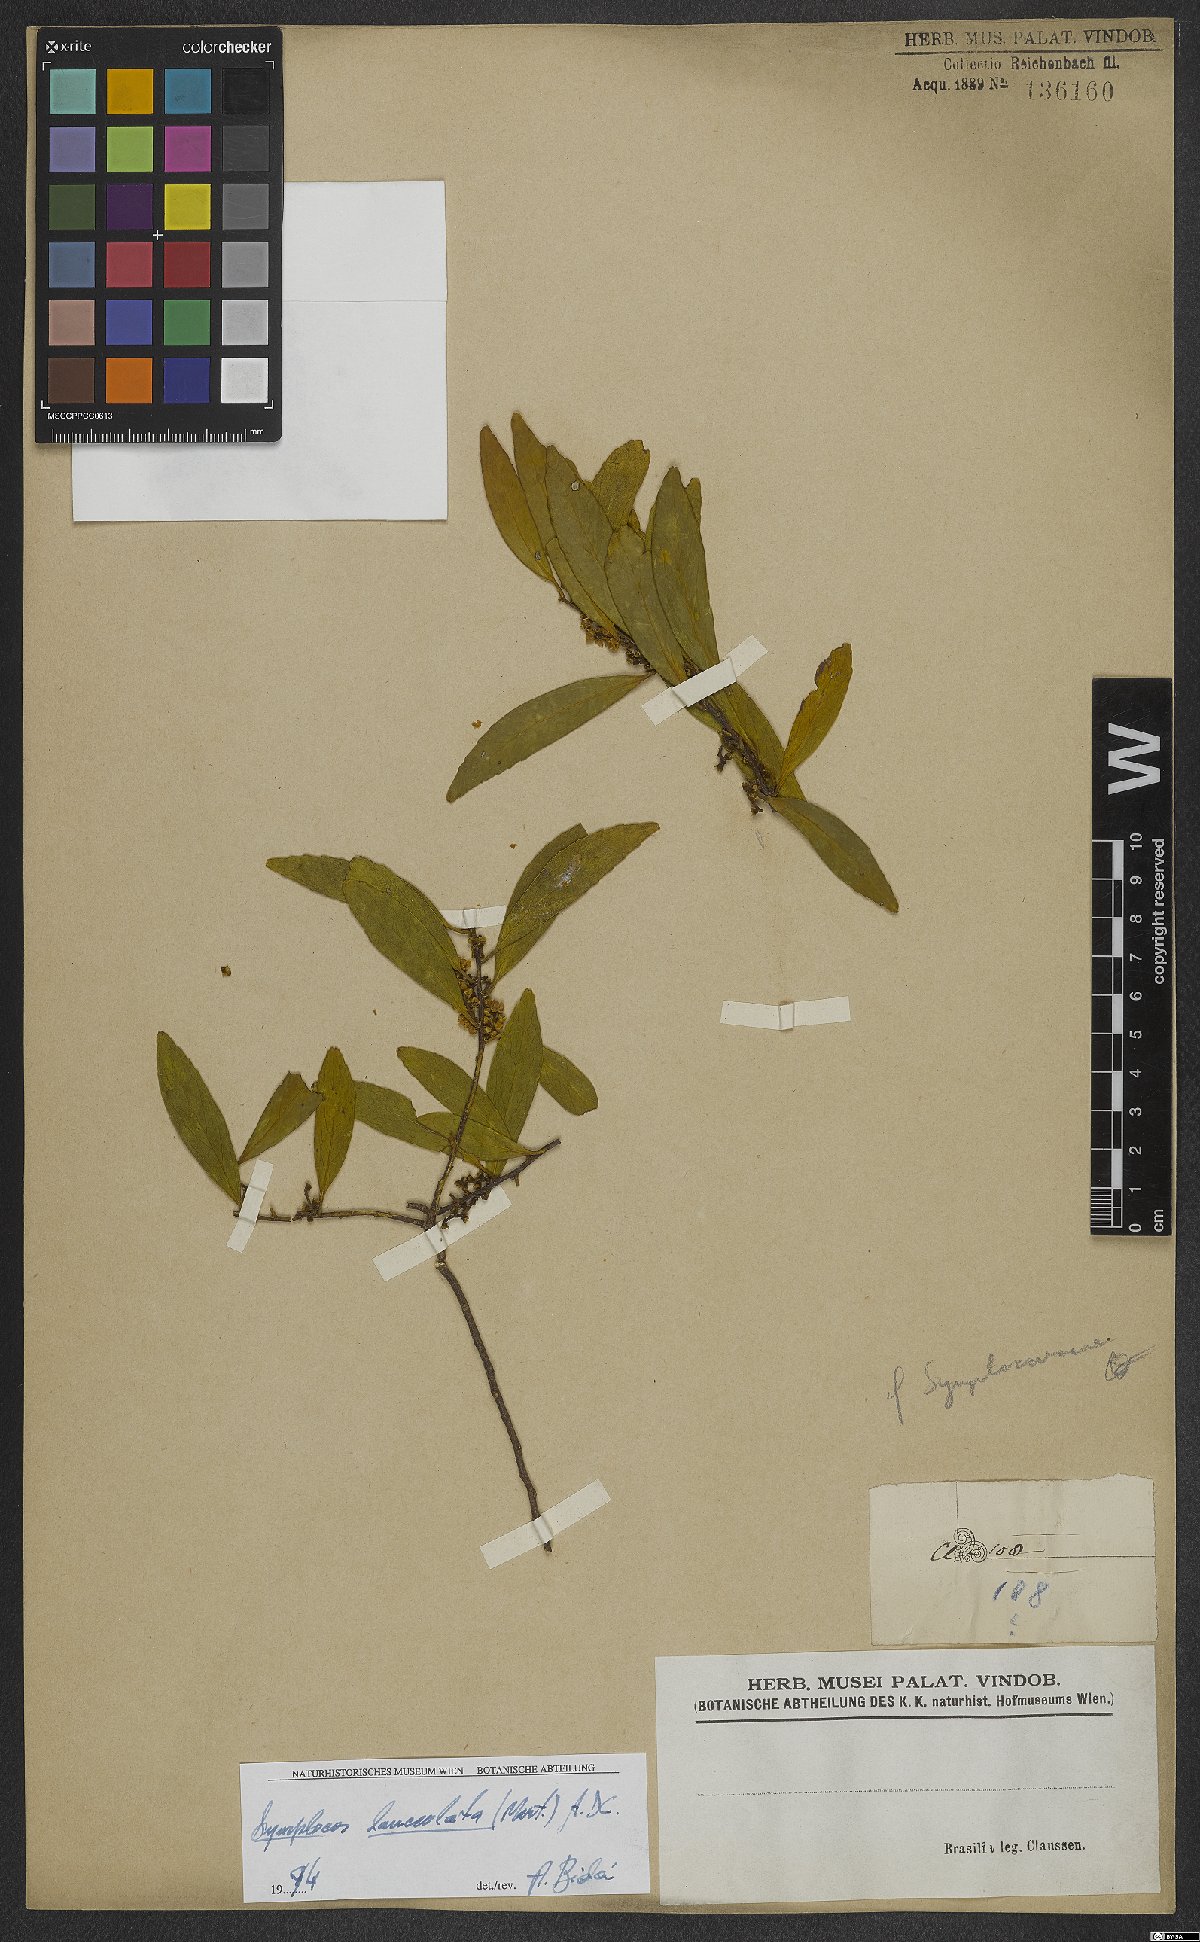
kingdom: Plantae
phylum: Tracheophyta
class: Magnoliopsida
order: Ericales
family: Symplocaceae
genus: Symplocos
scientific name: Symplocos oblongifolia
